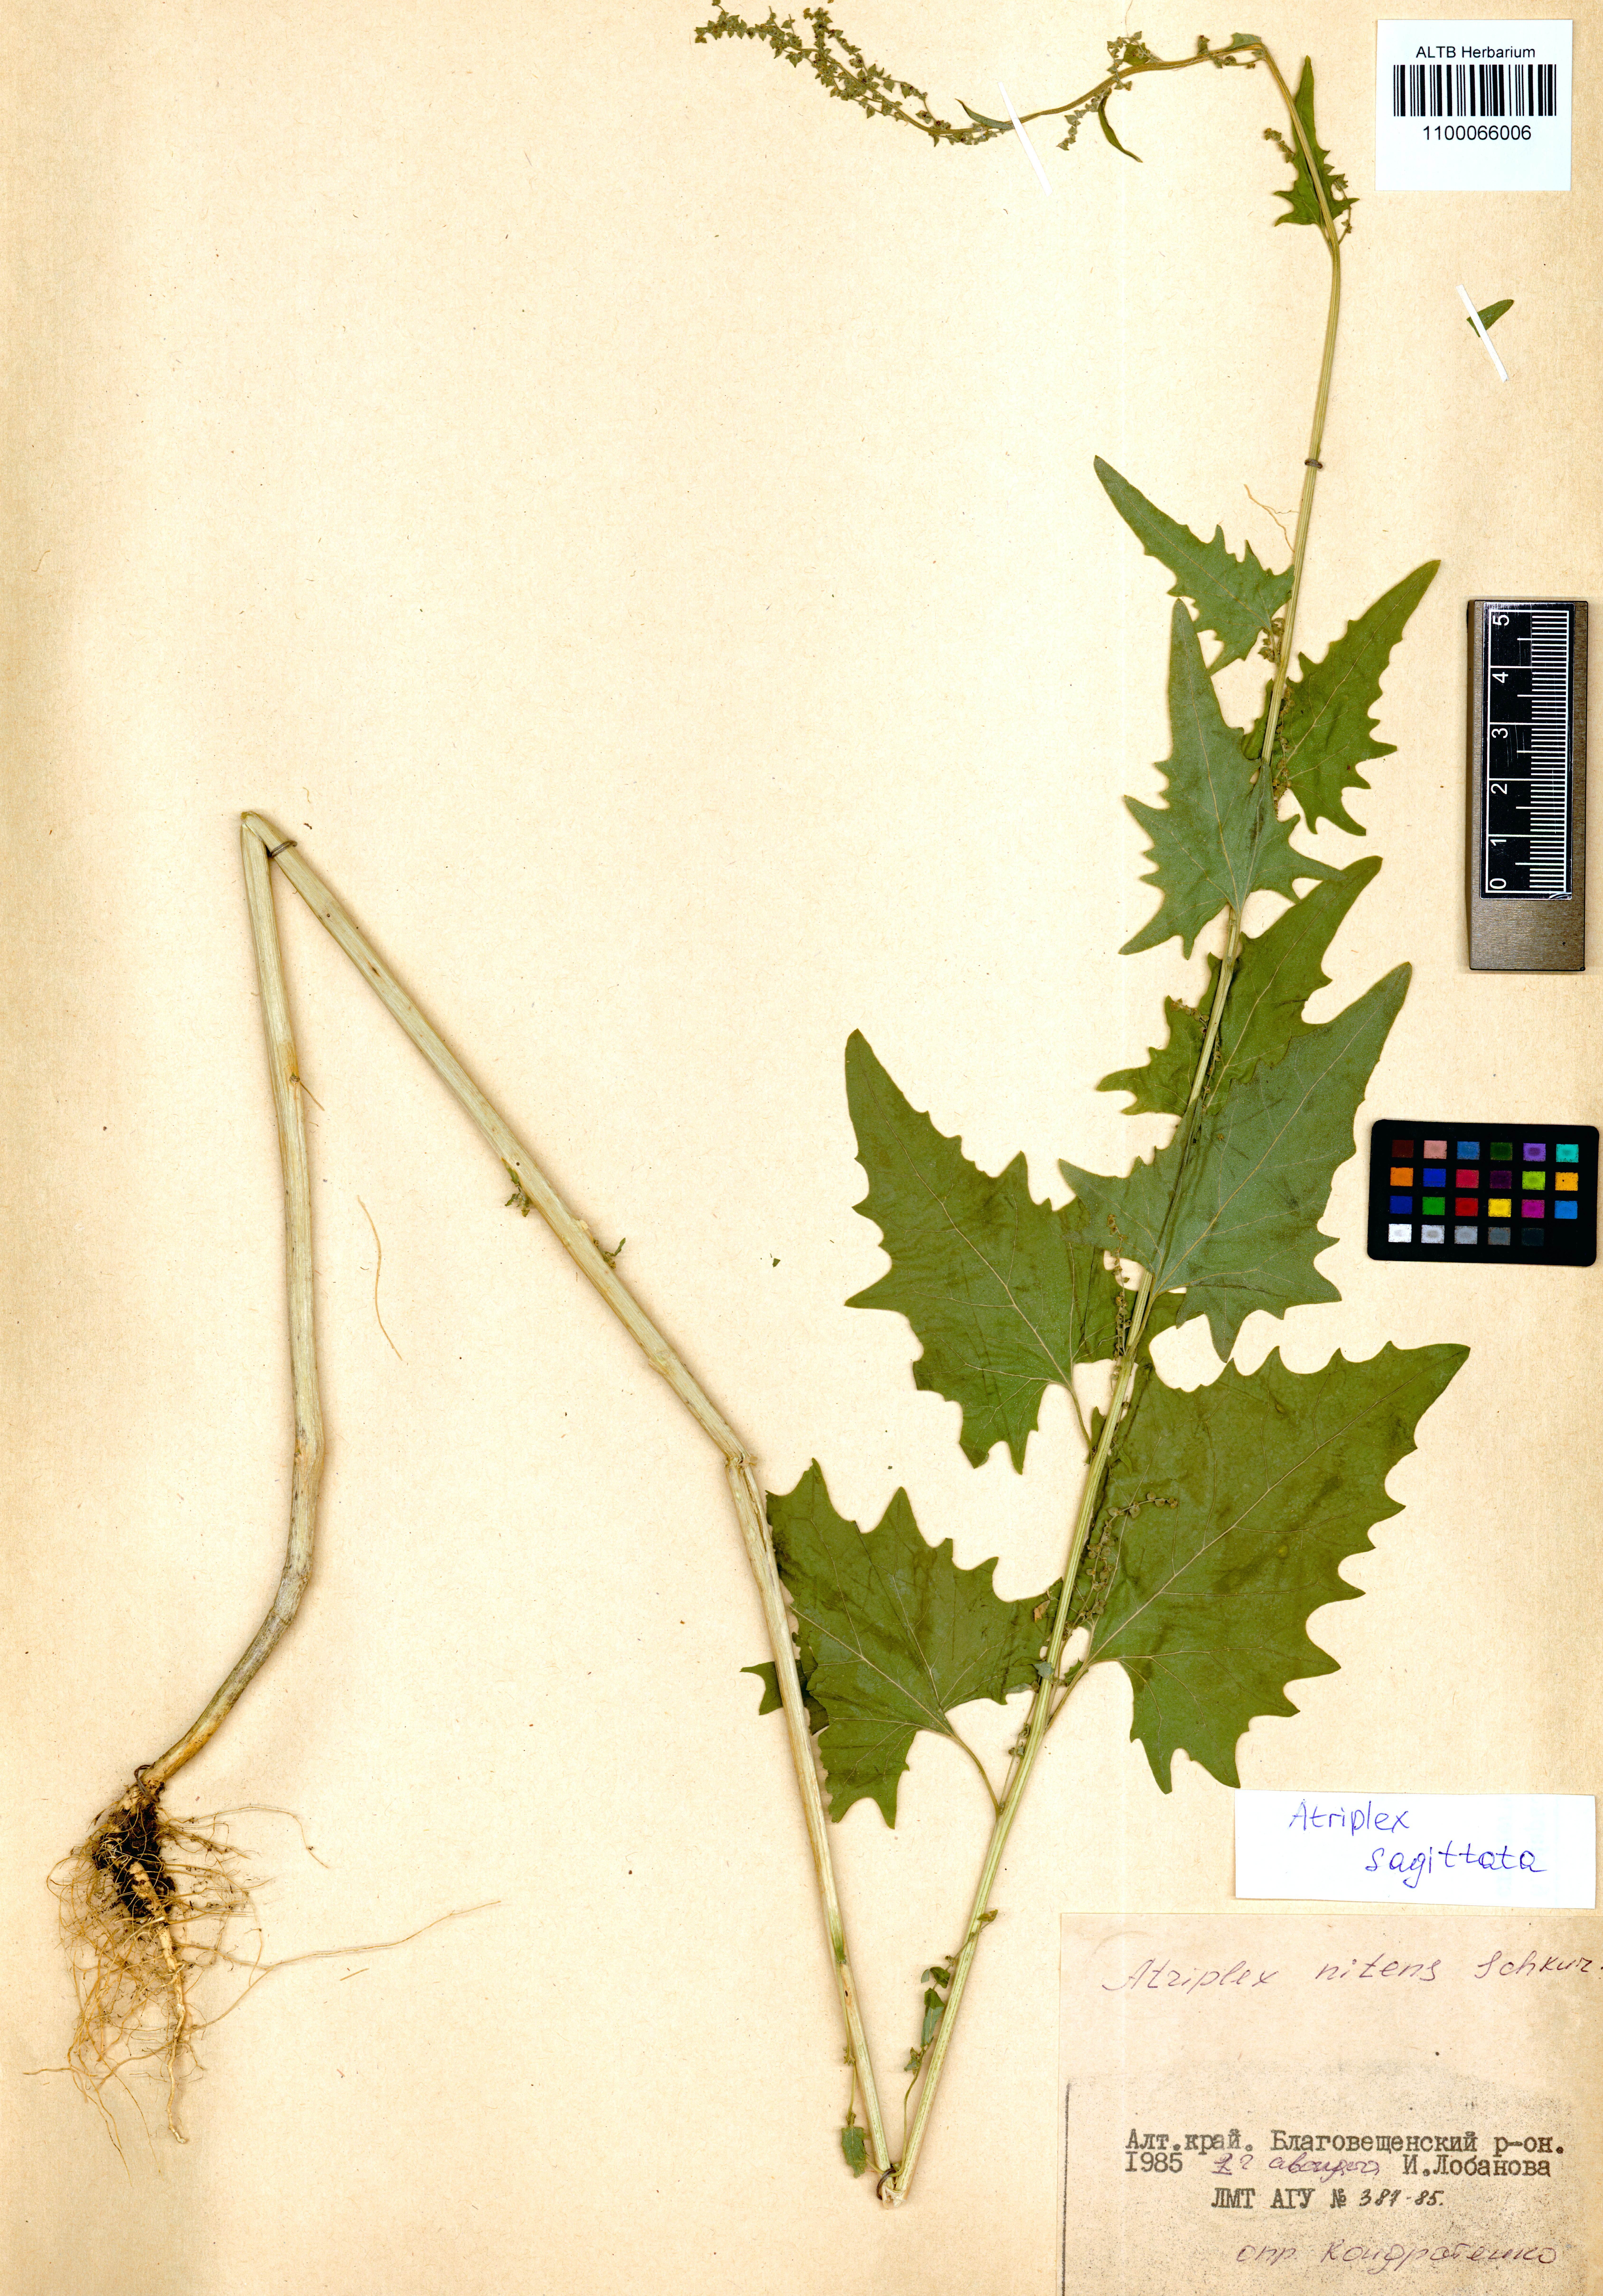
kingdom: Plantae
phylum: Tracheophyta
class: Magnoliopsida
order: Caryophyllales
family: Amaranthaceae
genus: Atriplex
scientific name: Atriplex sagittata
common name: Purple orache
